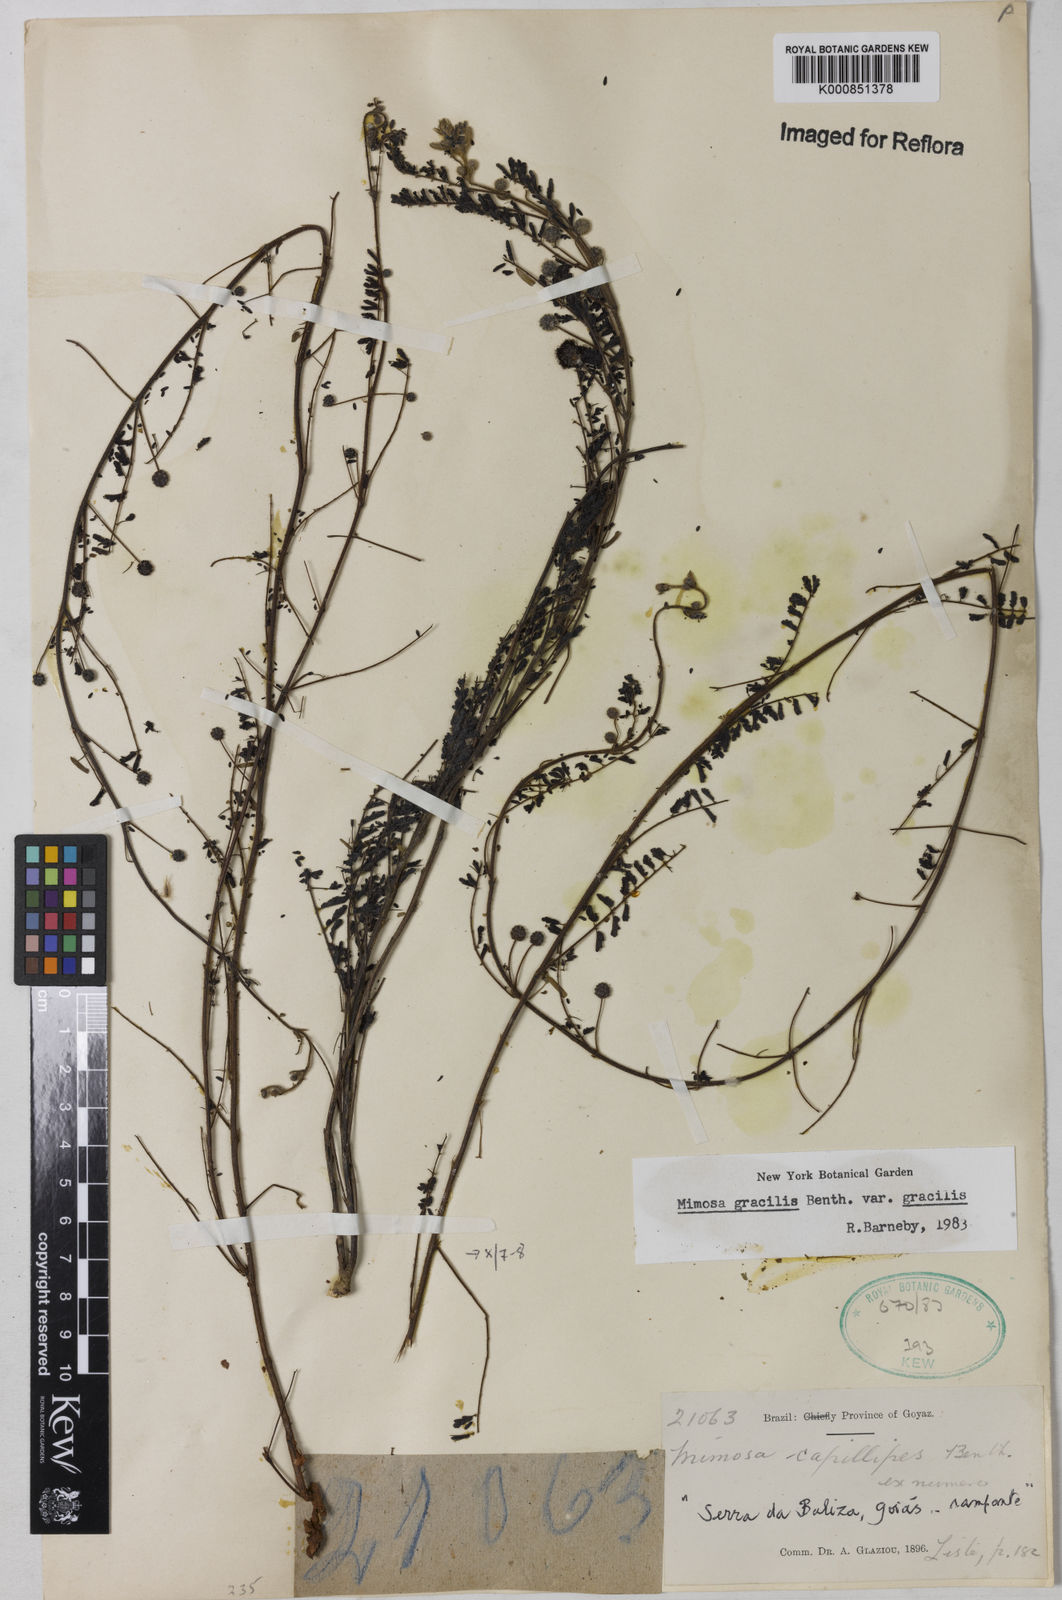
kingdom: Plantae
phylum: Tracheophyta
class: Magnoliopsida
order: Fabales
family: Fabaceae
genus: Mimosa
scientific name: Mimosa gracilis
